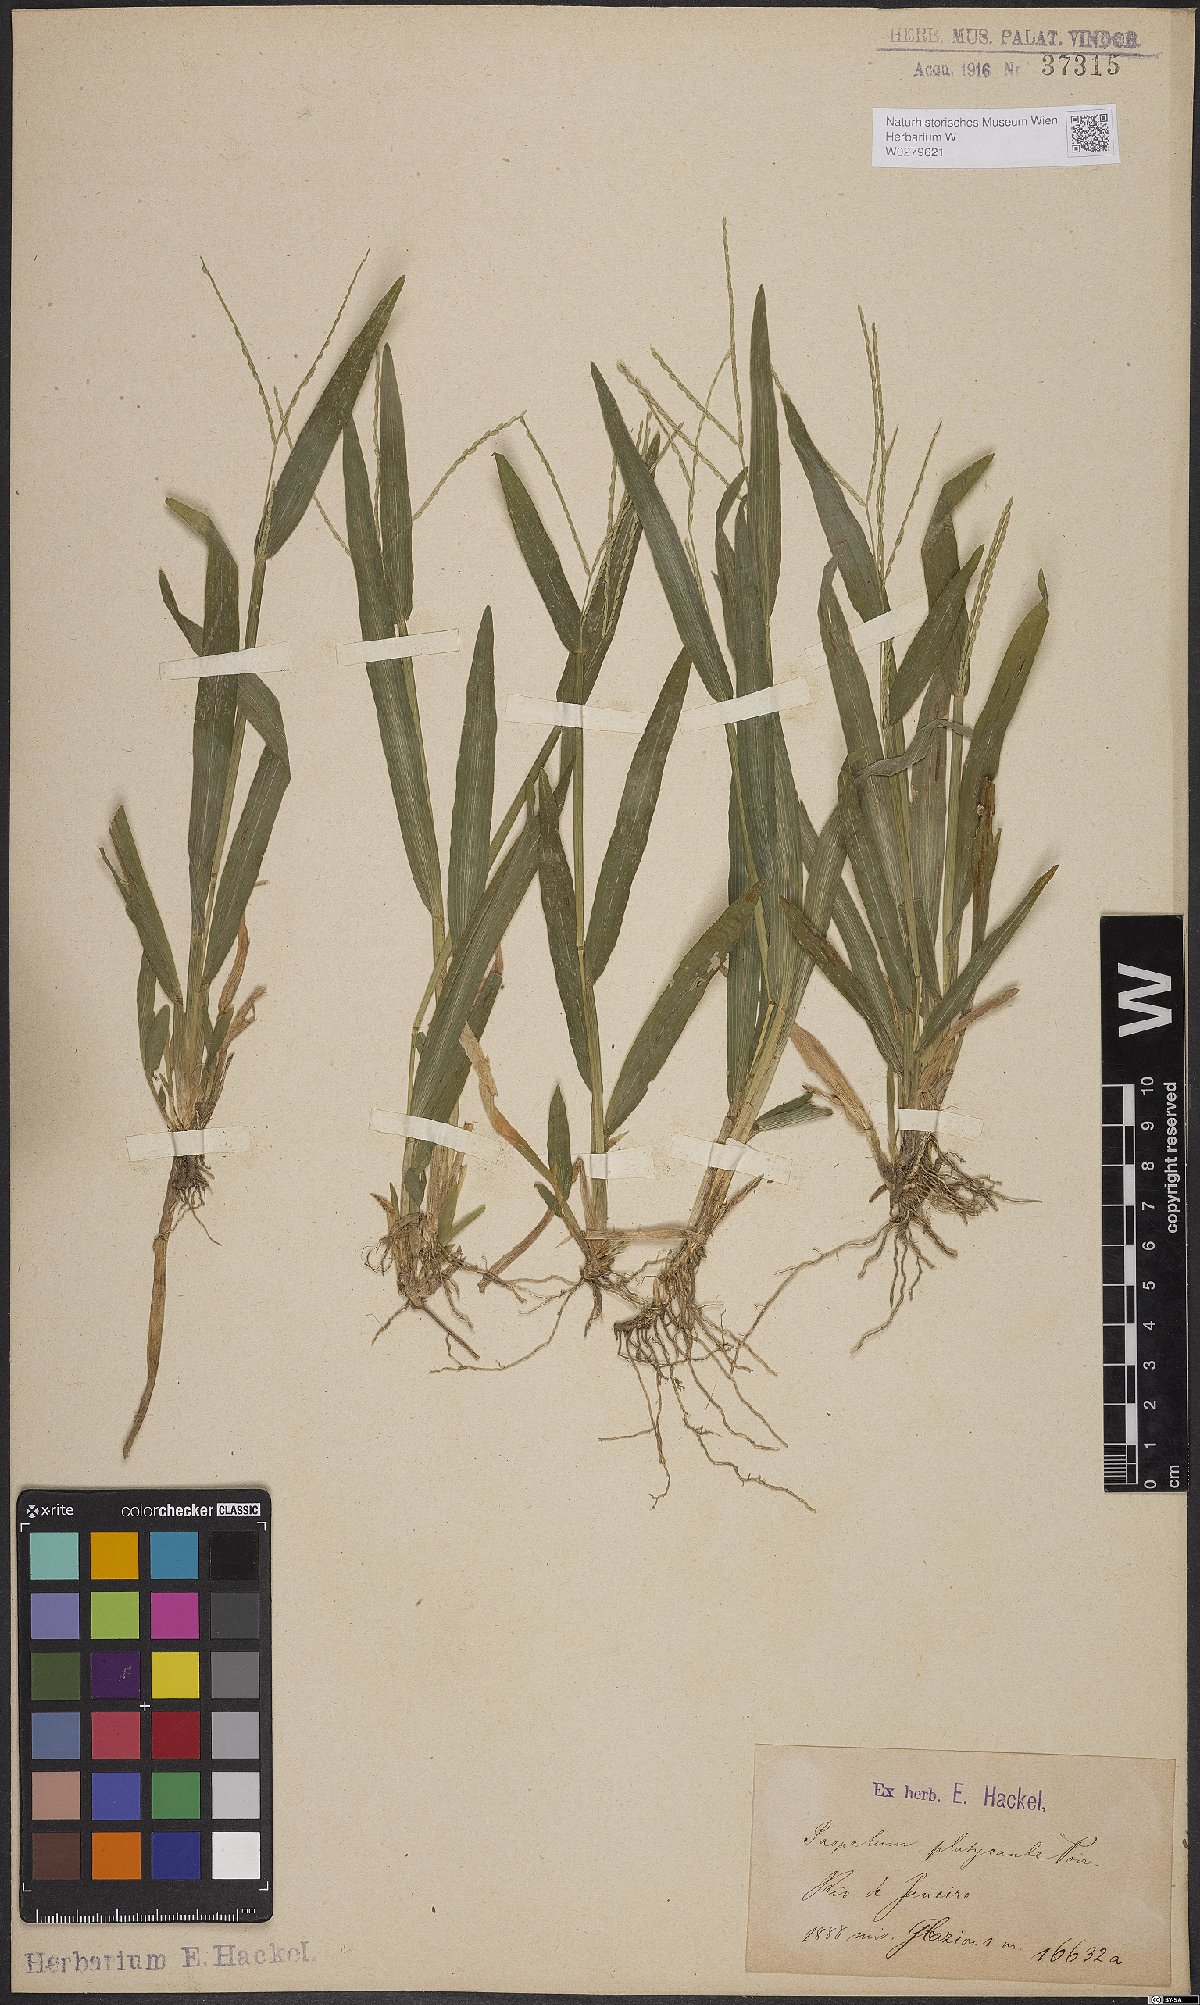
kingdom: Plantae
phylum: Tracheophyta
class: Liliopsida
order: Poales
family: Poaceae
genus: Axonopus
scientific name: Axonopus compressus
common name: American carpet grass
